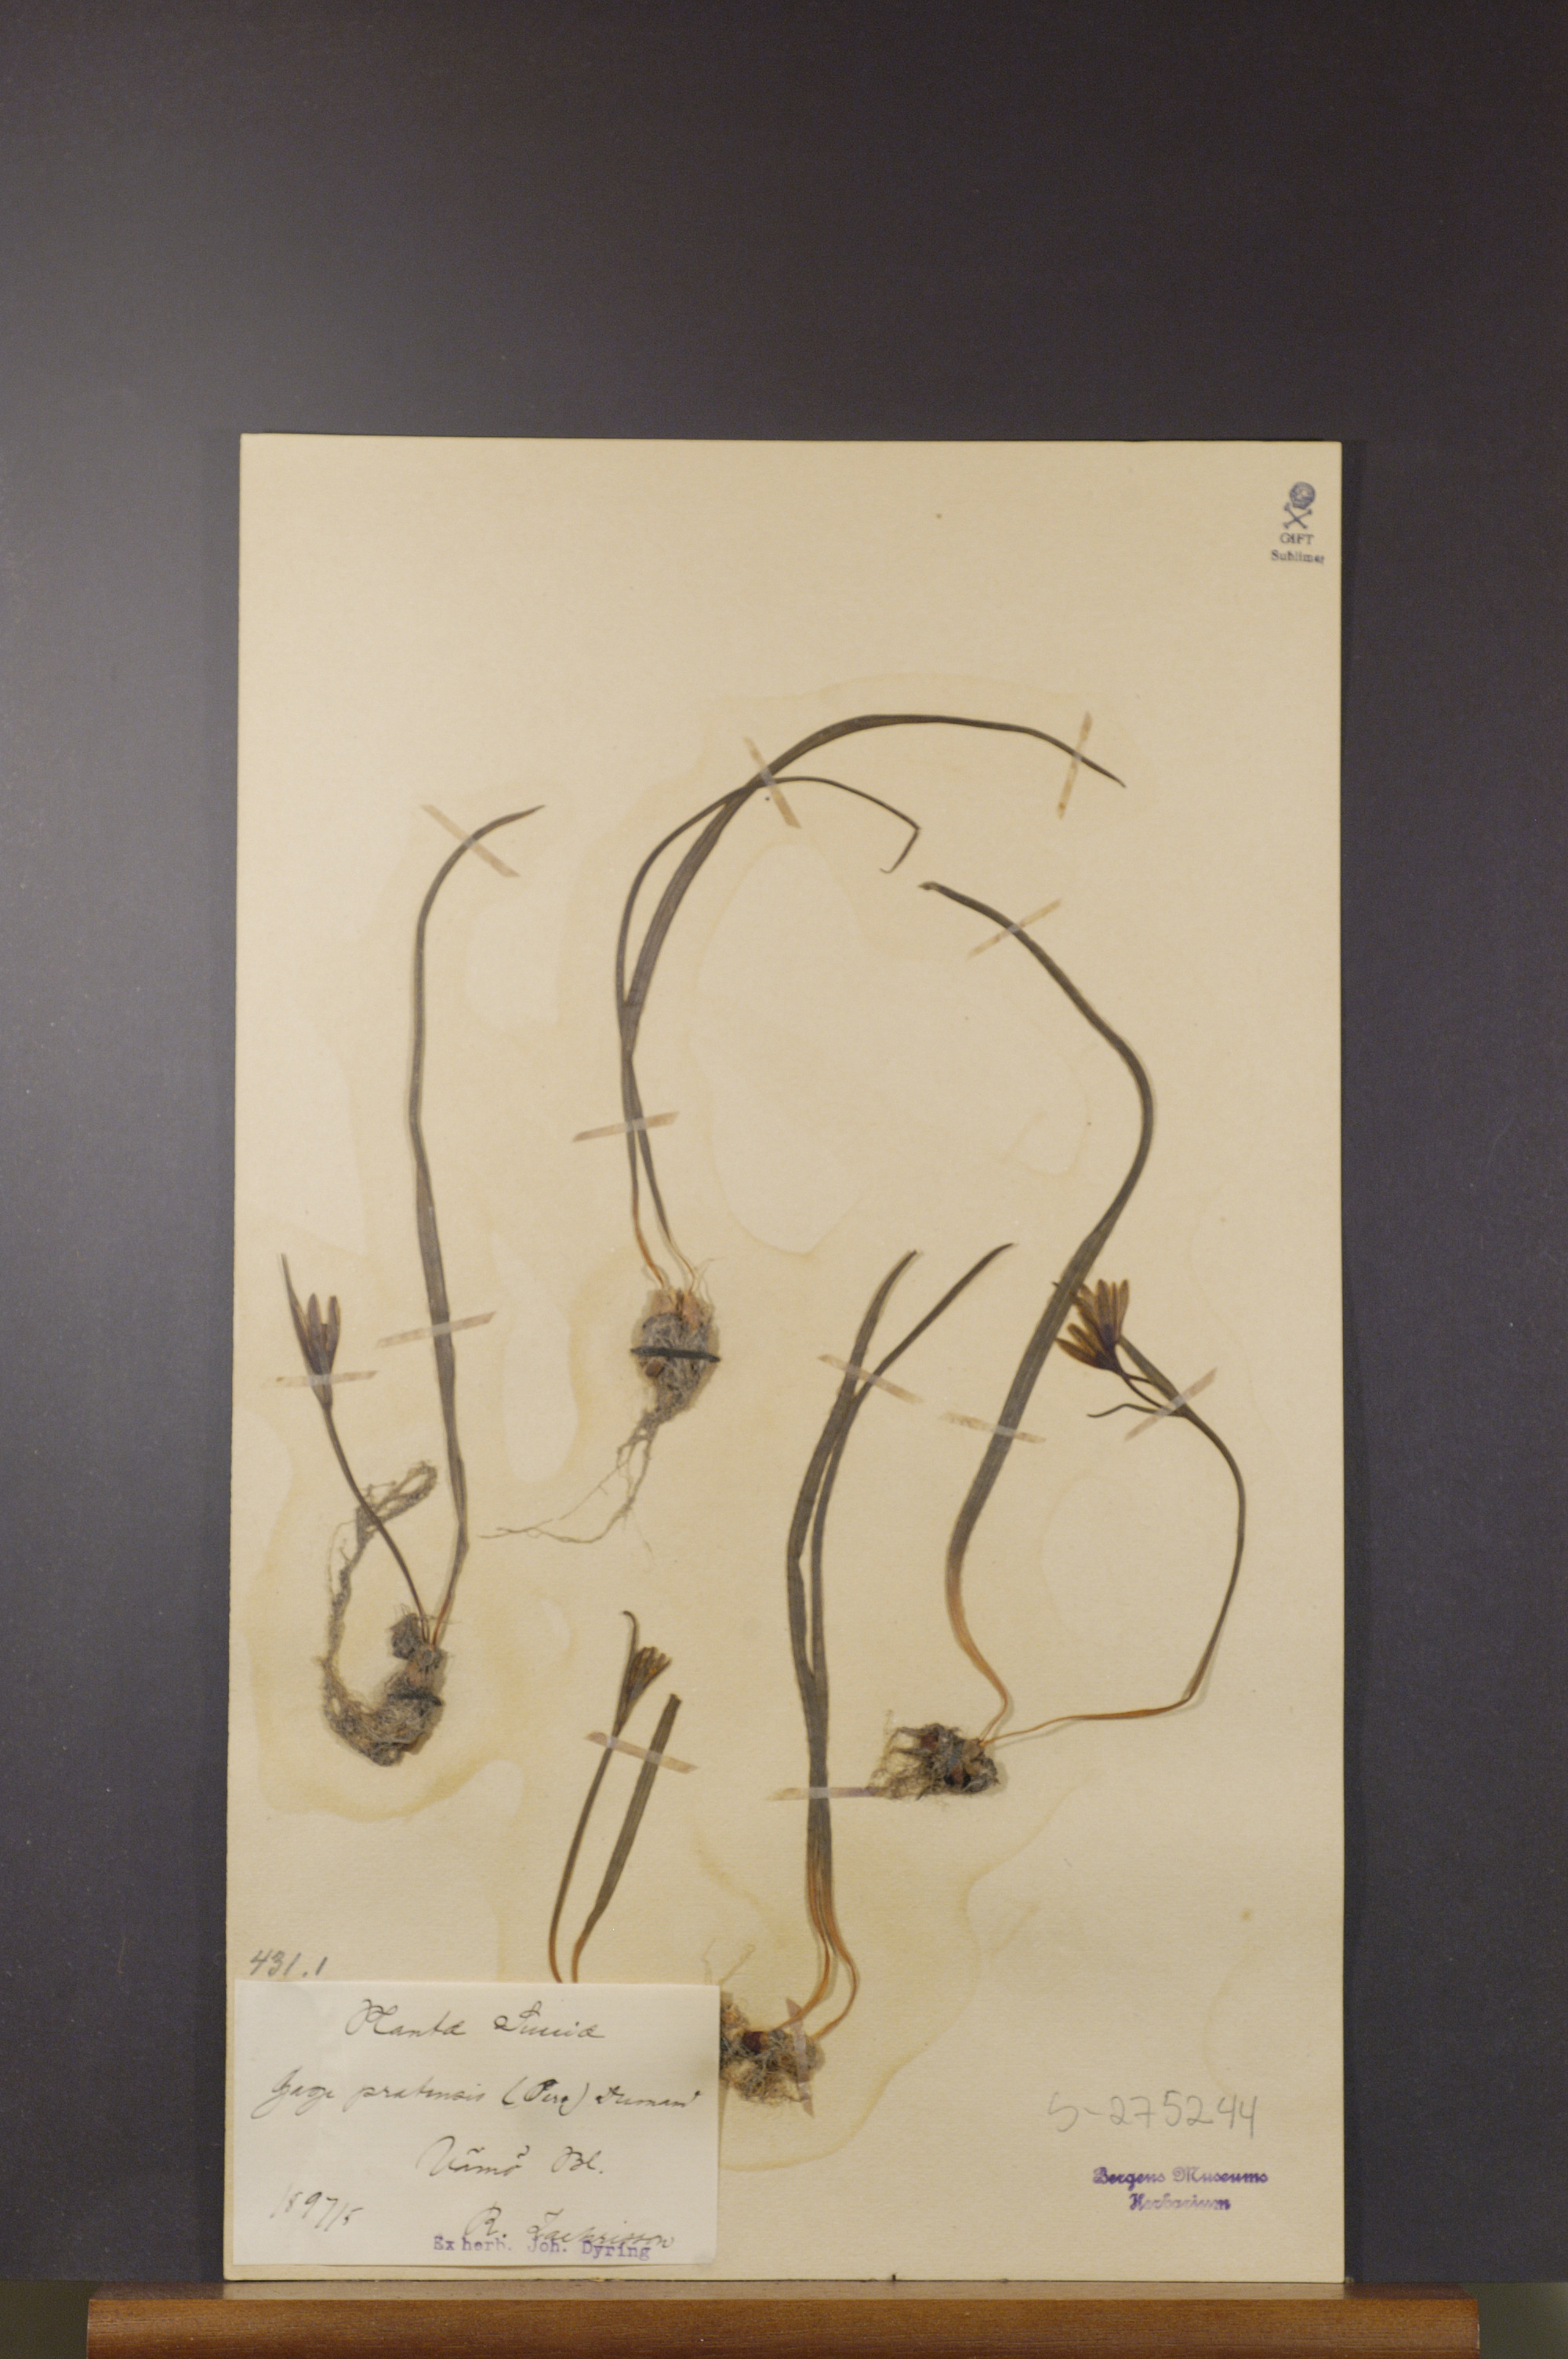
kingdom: Plantae
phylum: Tracheophyta
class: Liliopsida
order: Liliales
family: Liliaceae
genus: Gagea
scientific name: Gagea pratensis
